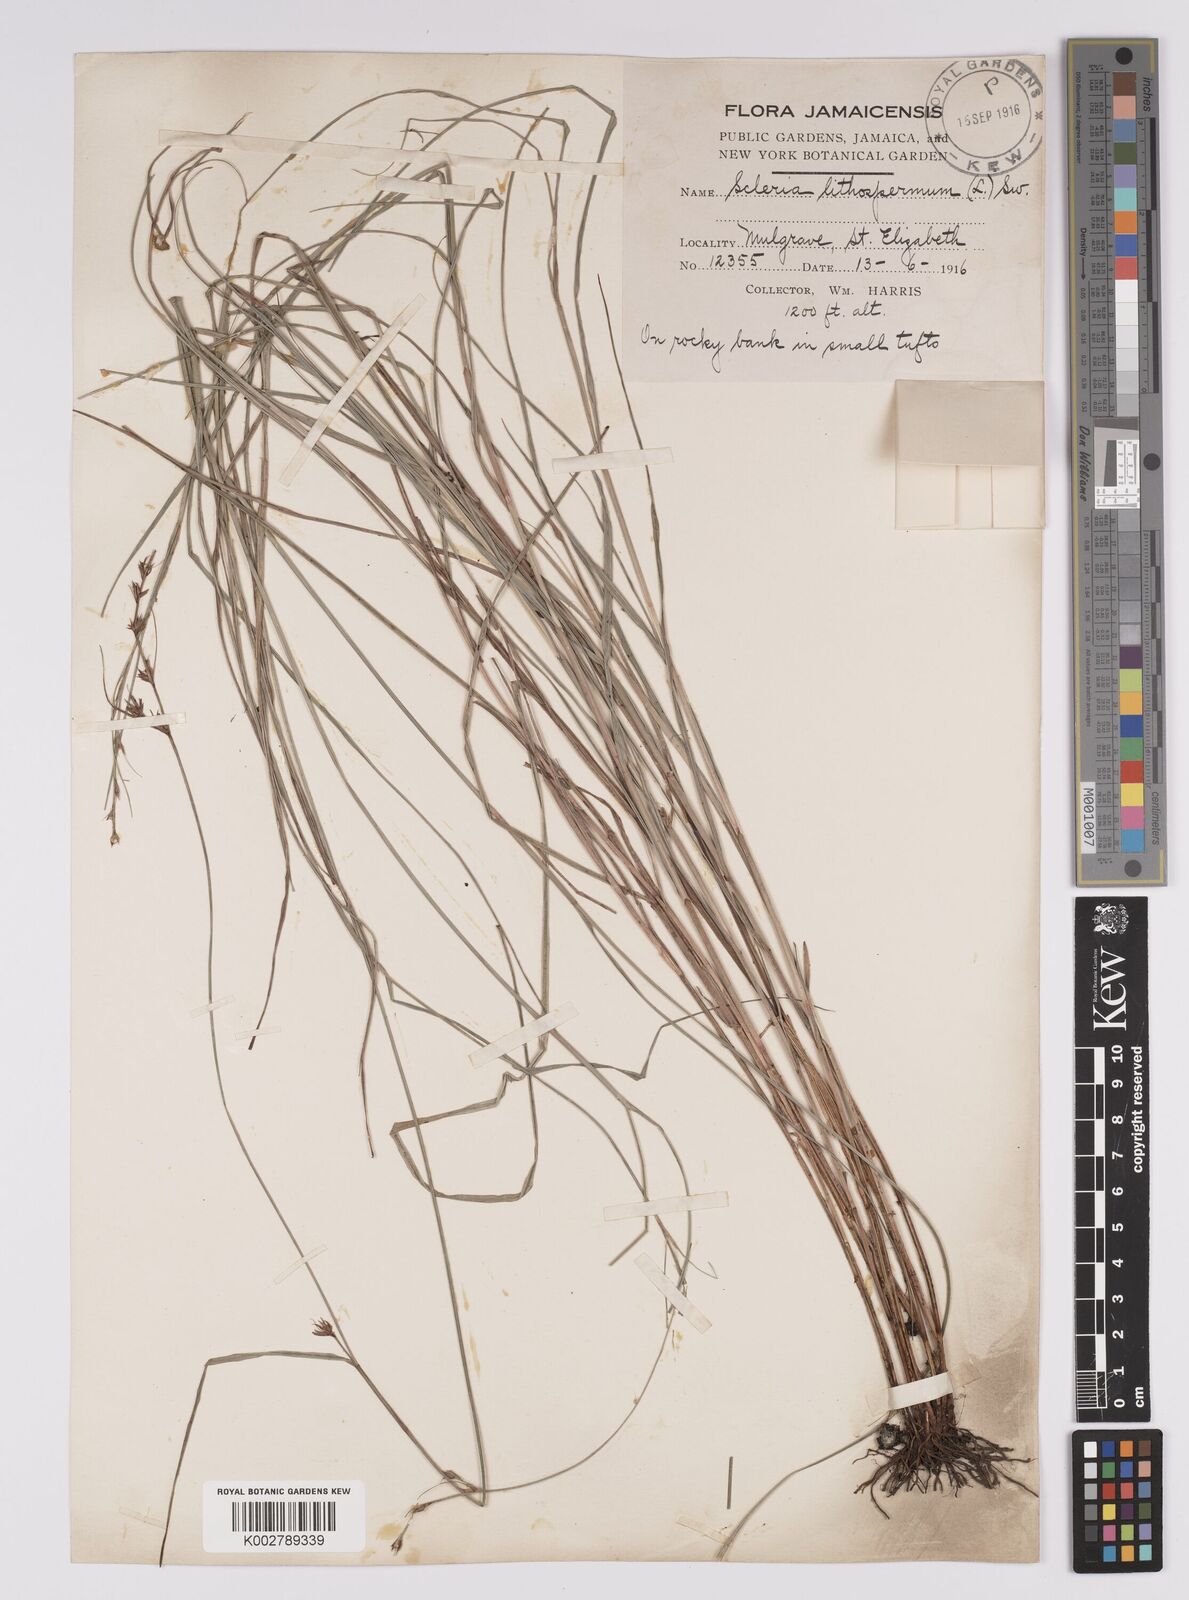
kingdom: Plantae
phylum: Tracheophyta
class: Liliopsida
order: Poales
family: Cyperaceae
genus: Scleria
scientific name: Scleria lithosperma
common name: Florida keys nut-rush
